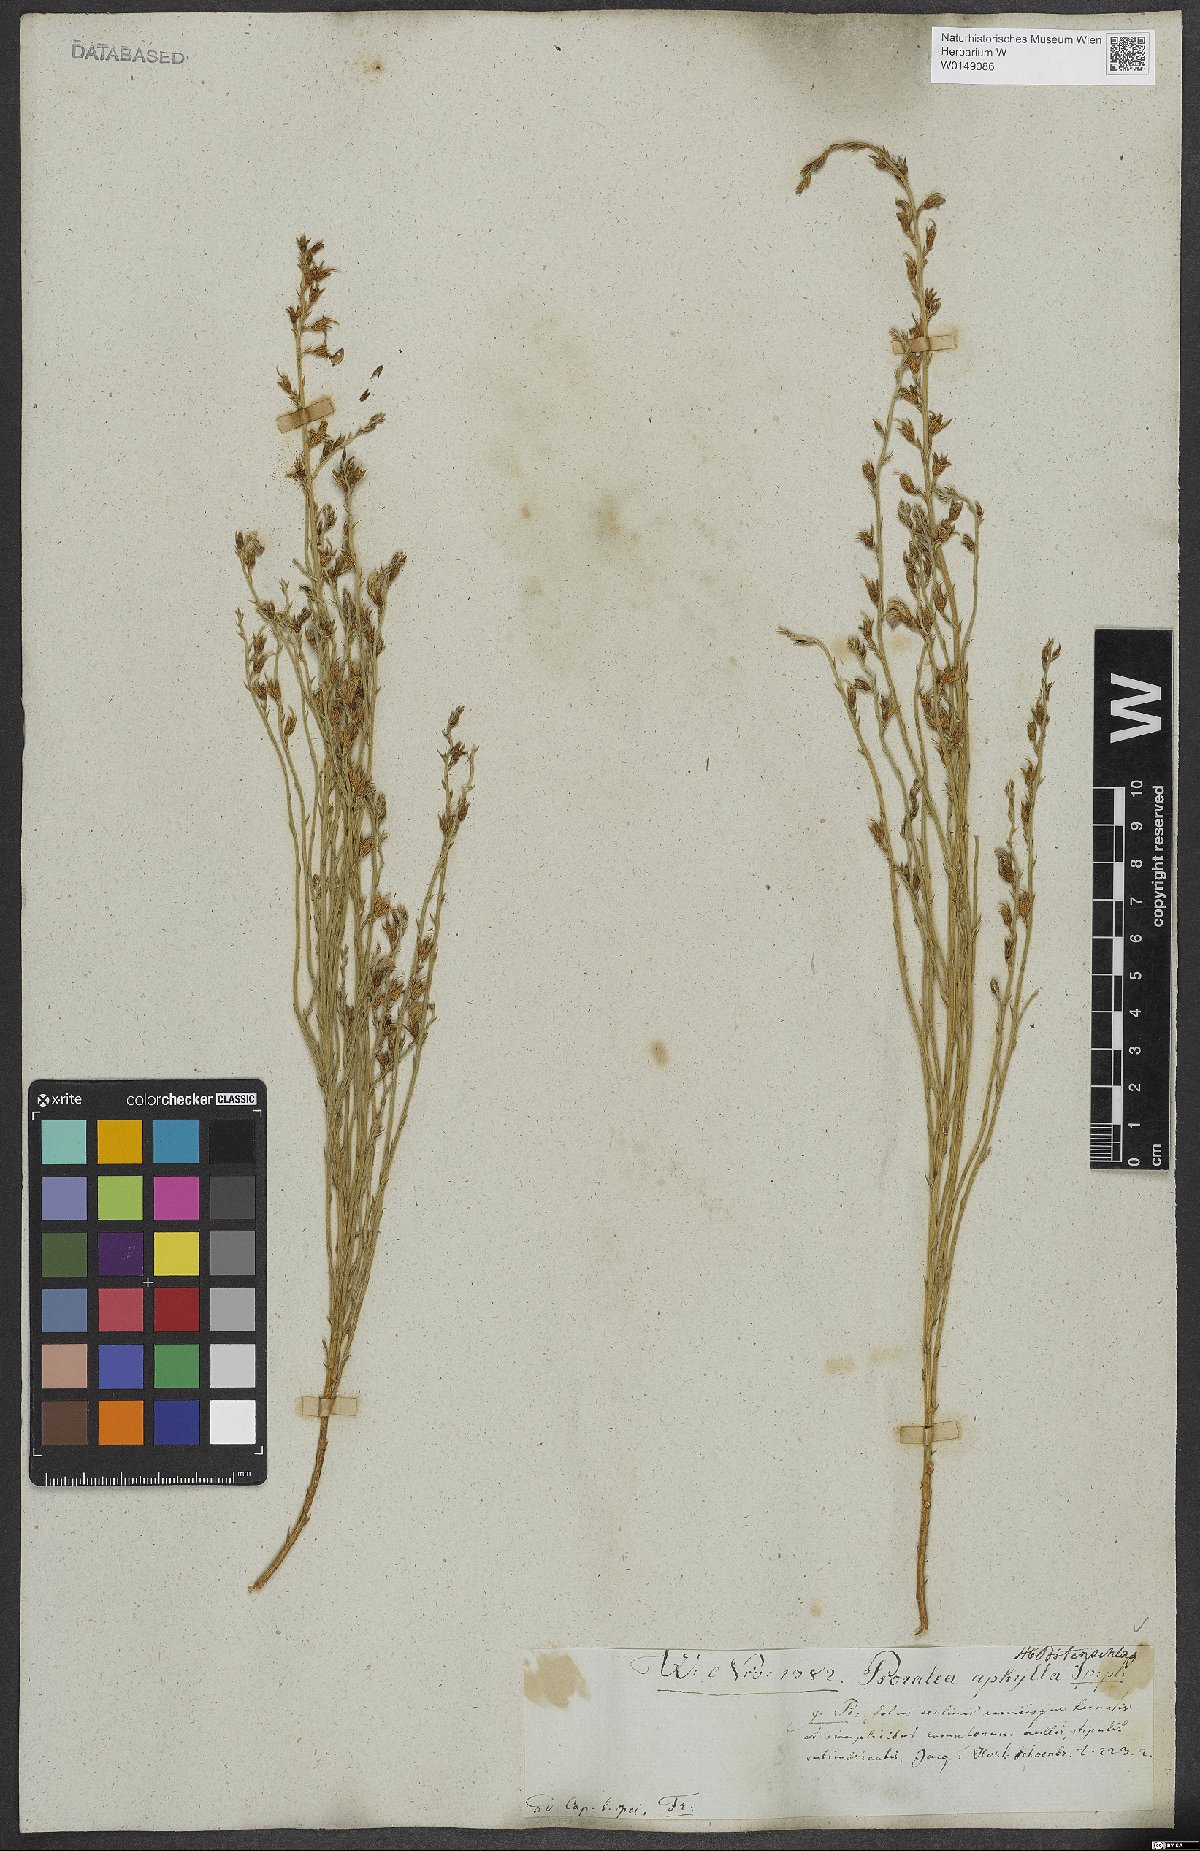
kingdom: Plantae
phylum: Tracheophyta
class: Magnoliopsida
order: Fabales
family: Fabaceae
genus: Psoralea
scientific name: Psoralea aphylla
